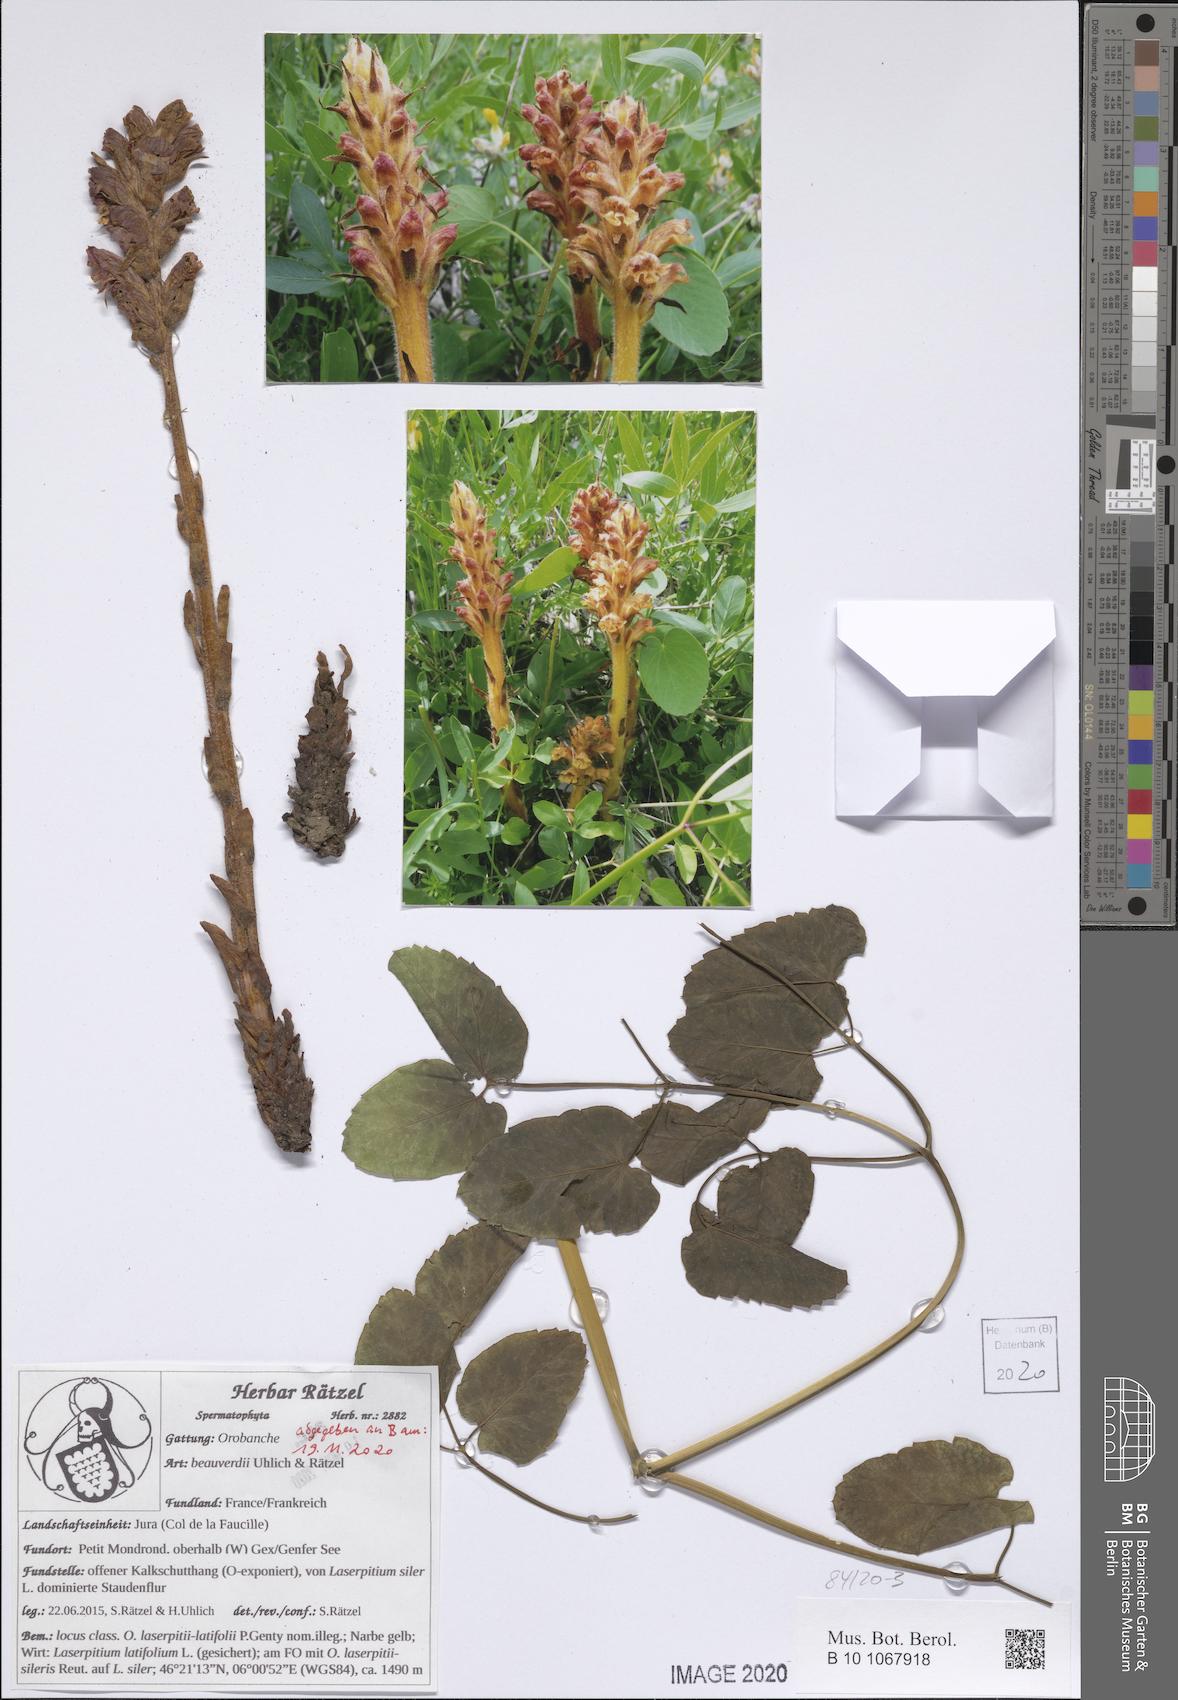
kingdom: Plantae
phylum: Tracheophyta
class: Magnoliopsida
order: Lamiales
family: Orobanchaceae
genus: Orobanche
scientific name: Orobanche beauverdii
